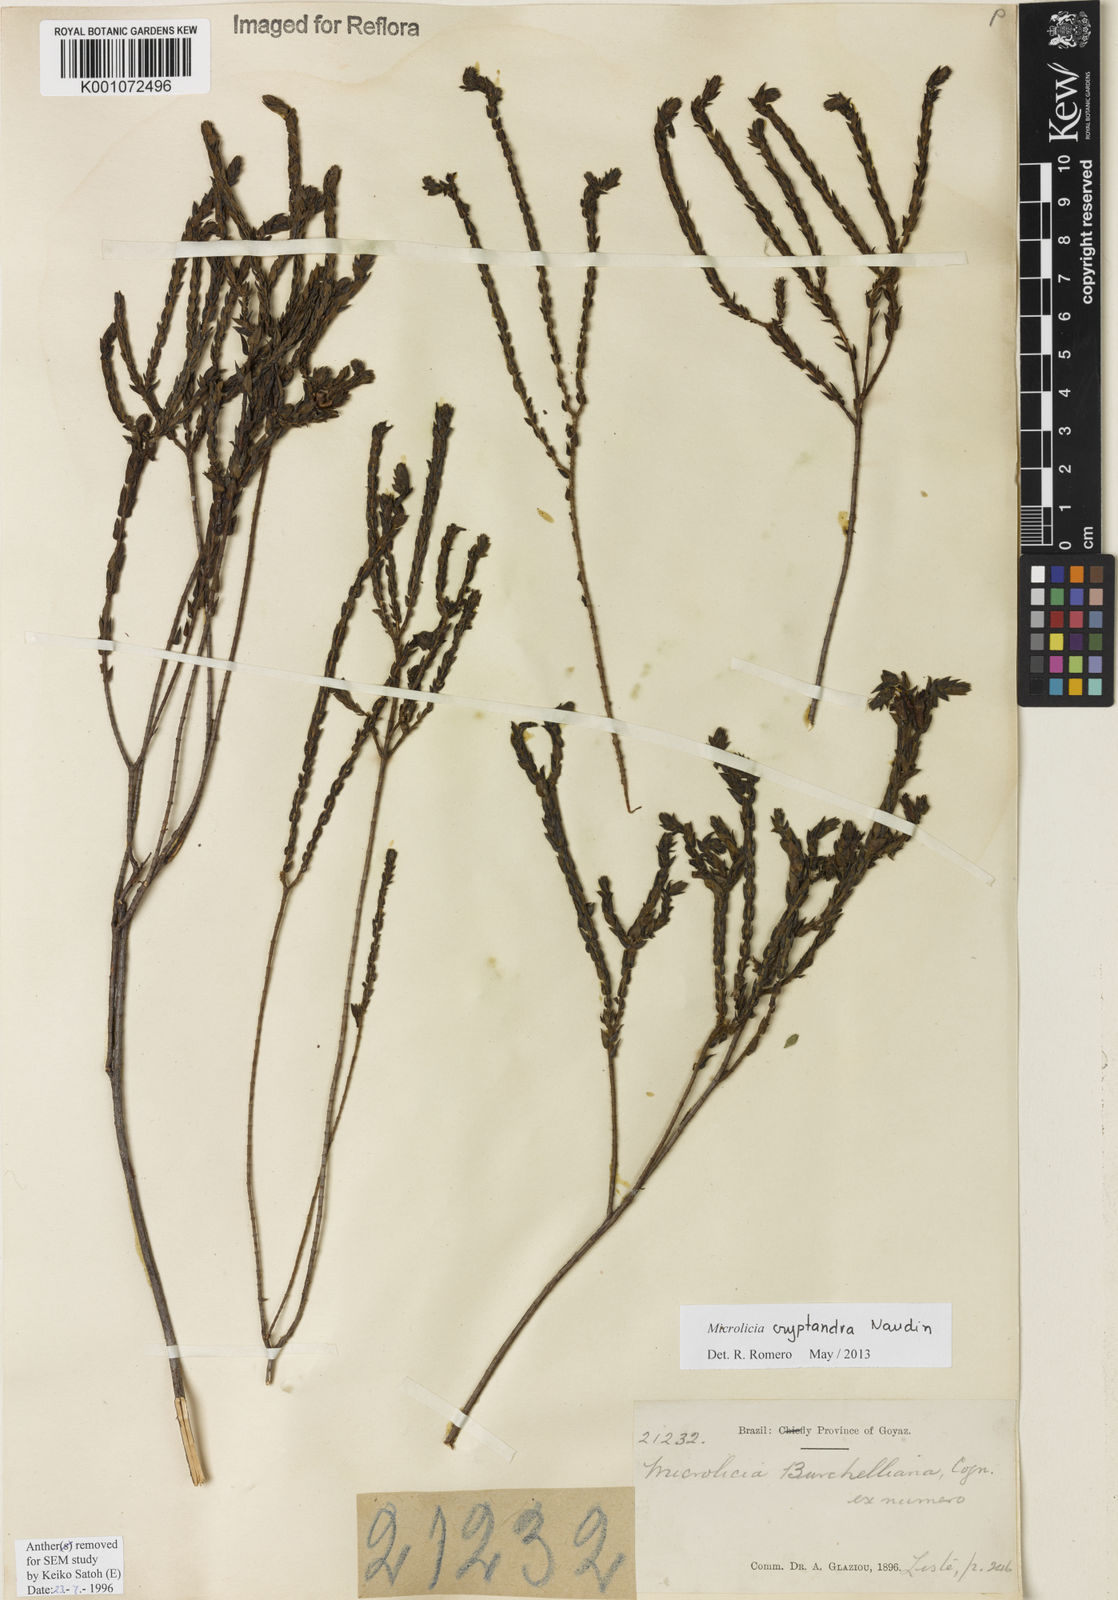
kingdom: Plantae
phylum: Tracheophyta
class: Magnoliopsida
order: Myrtales
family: Melastomataceae
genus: Microlicia
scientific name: Microlicia cryptandra
